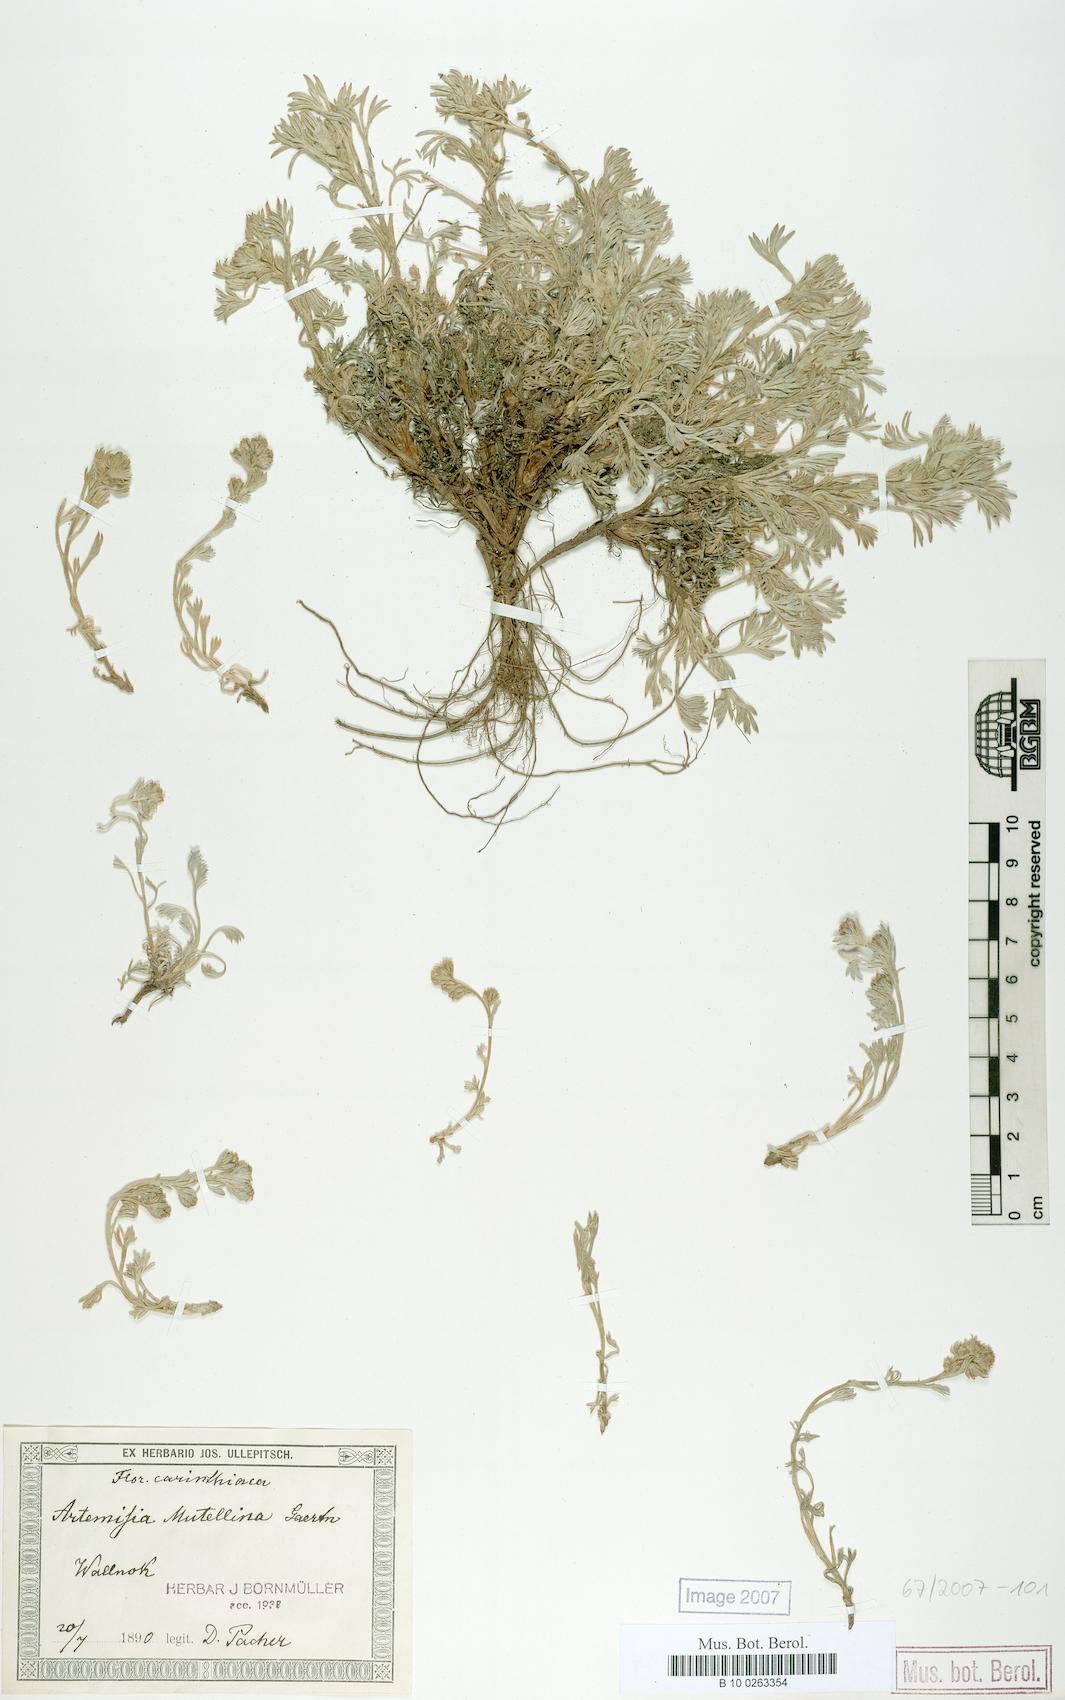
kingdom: Plantae
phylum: Tracheophyta
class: Magnoliopsida
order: Asterales
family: Asteraceae
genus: Artemisia
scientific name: Artemisia mutellina
